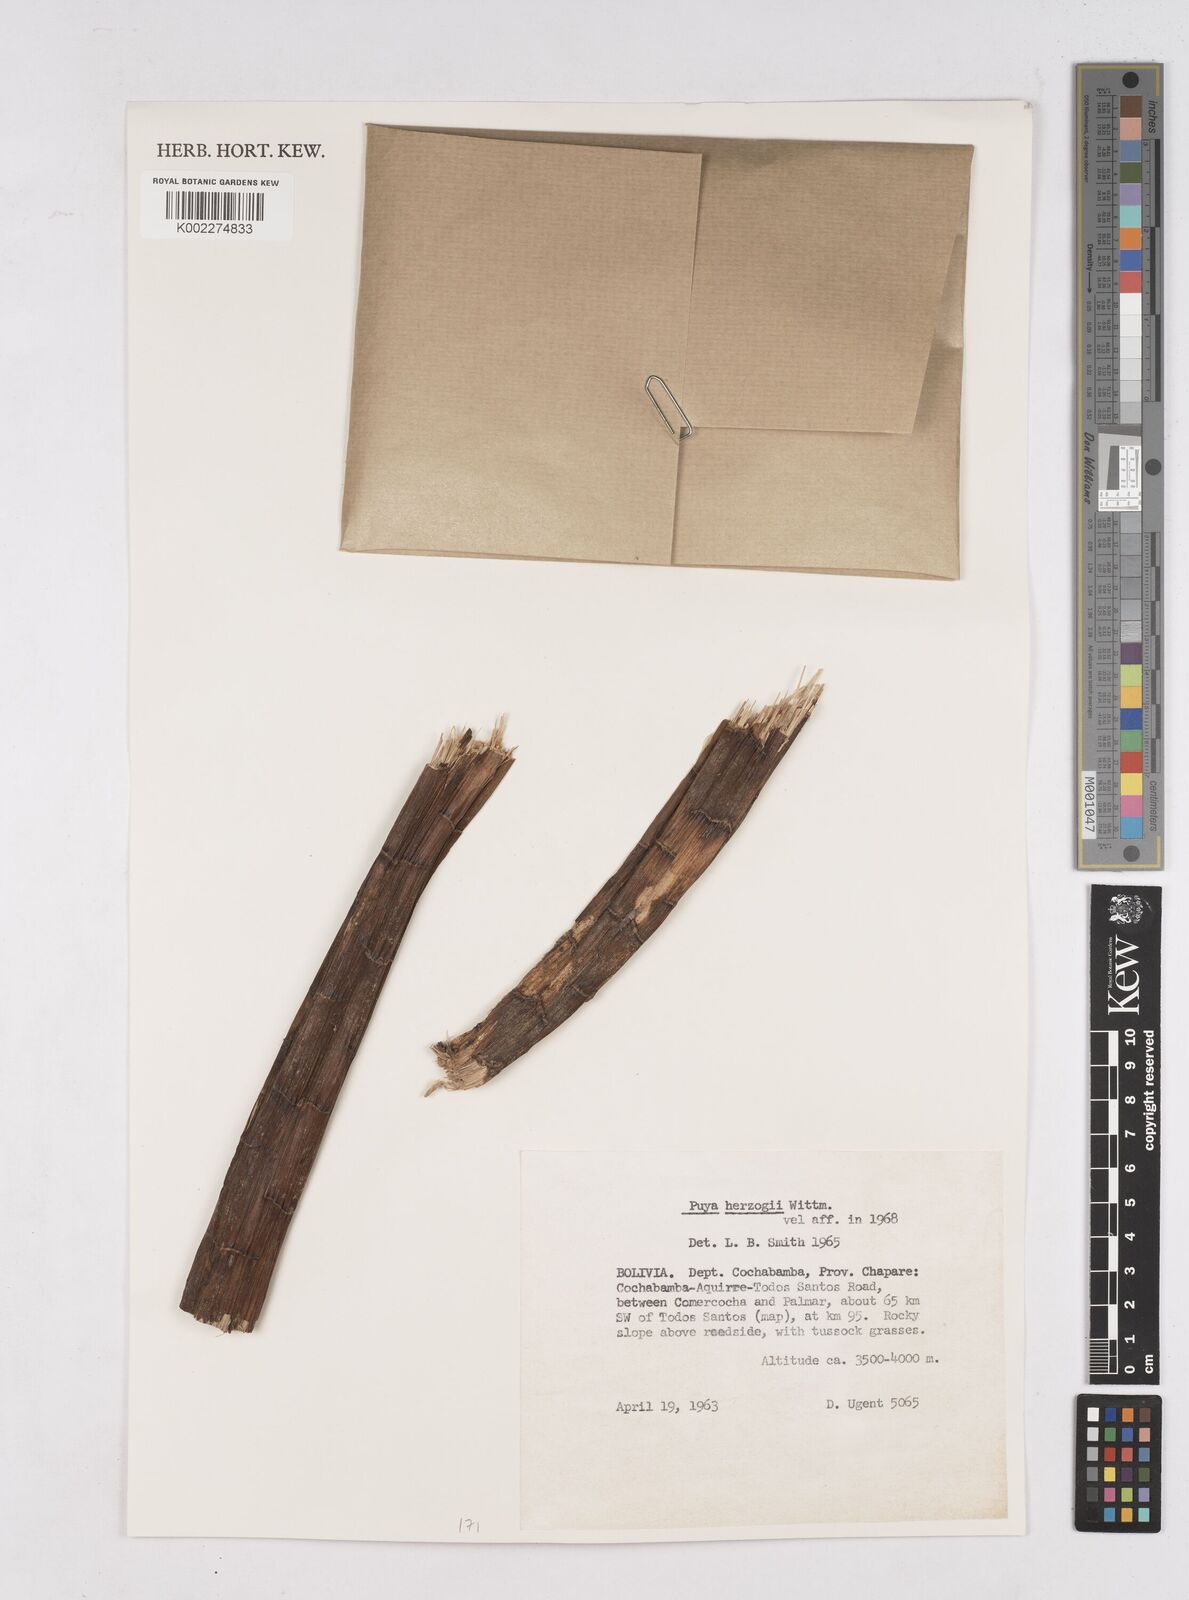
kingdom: Plantae
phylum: Tracheophyta
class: Liliopsida
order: Poales
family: Bromeliaceae
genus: Puya
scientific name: Puya herzogii
